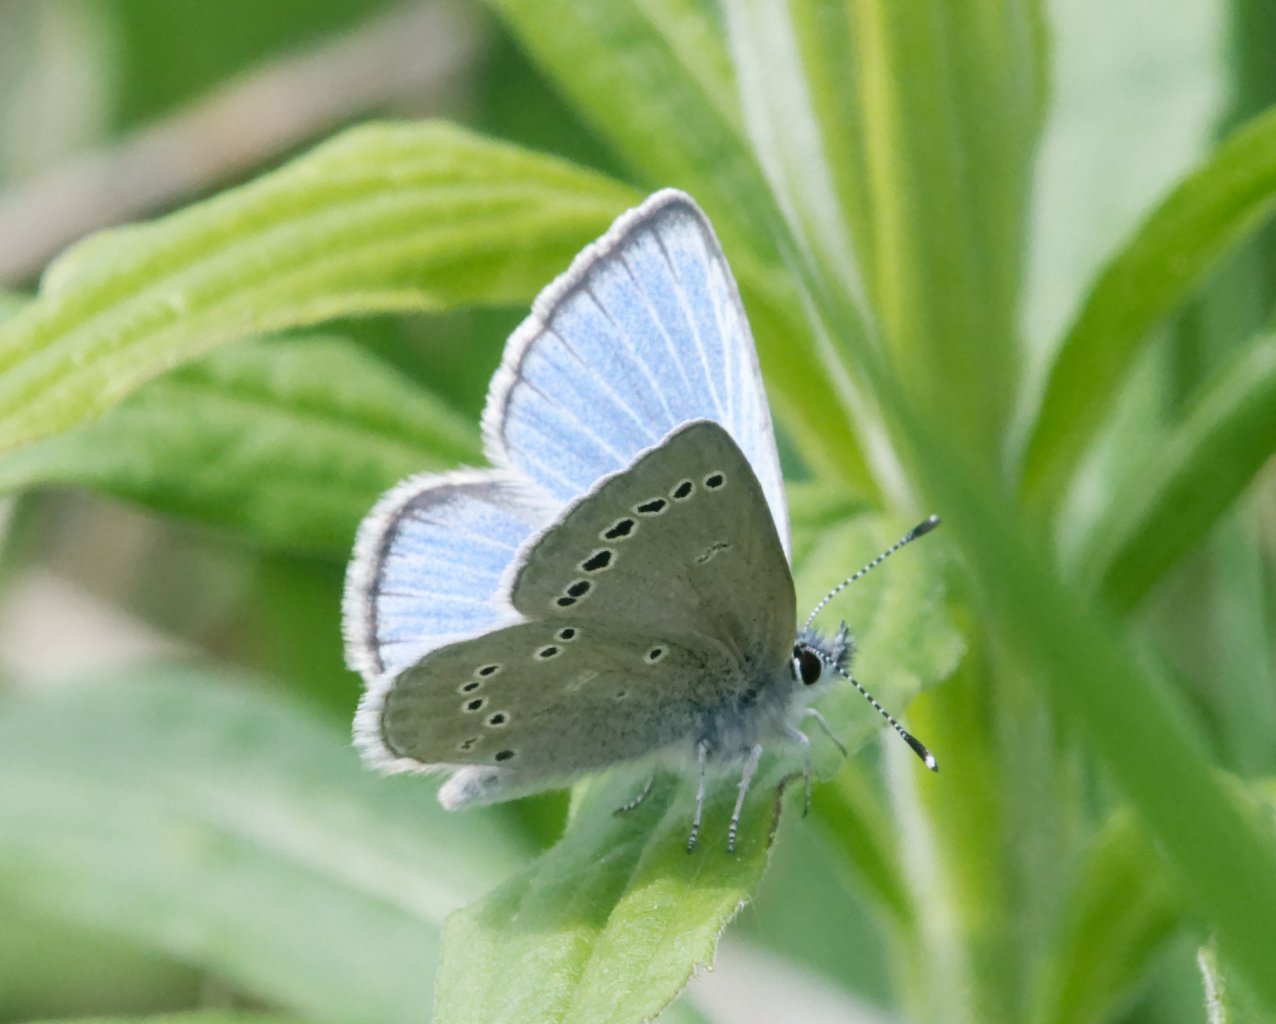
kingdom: Animalia
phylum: Arthropoda
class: Insecta
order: Lepidoptera
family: Lycaenidae
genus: Glaucopsyche
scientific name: Glaucopsyche lygdamus
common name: Silvery Blue
